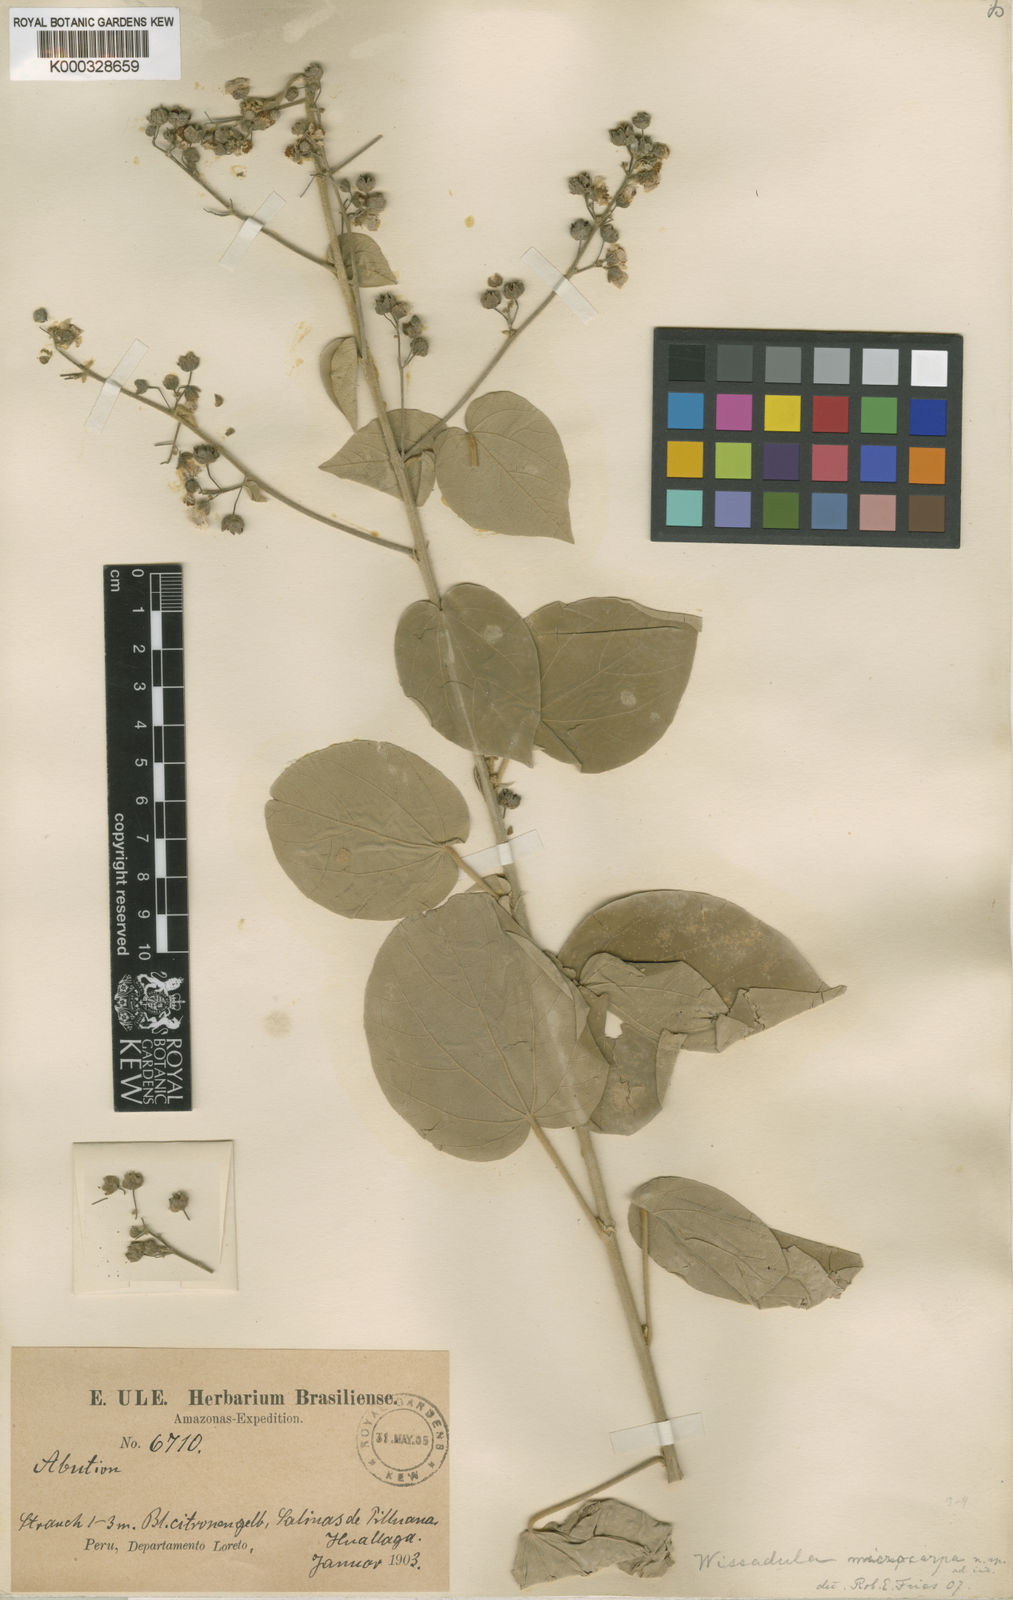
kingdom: Plantae
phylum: Tracheophyta
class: Magnoliopsida
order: Malvales
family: Malvaceae
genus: Wissadula
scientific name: Wissadula microcarpa
